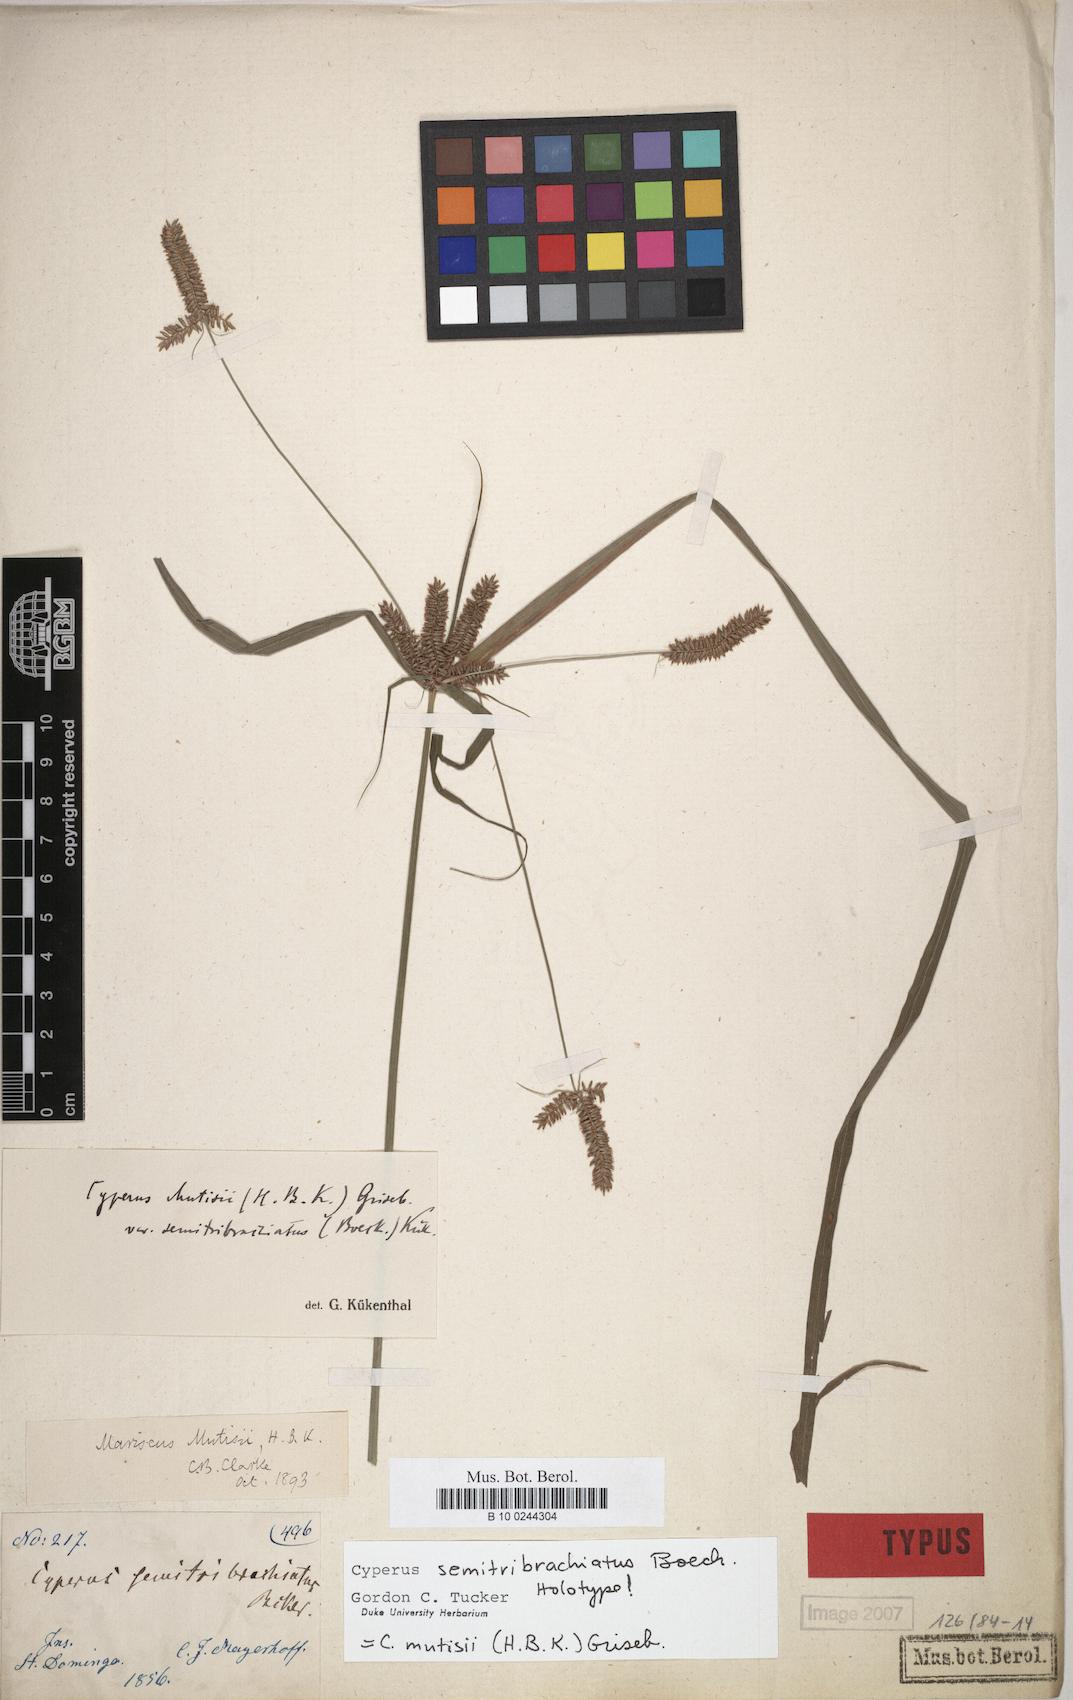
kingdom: Plantae
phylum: Tracheophyta
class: Liliopsida
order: Poales
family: Cyperaceae
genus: Cyperus
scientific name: Cyperus mutisii
